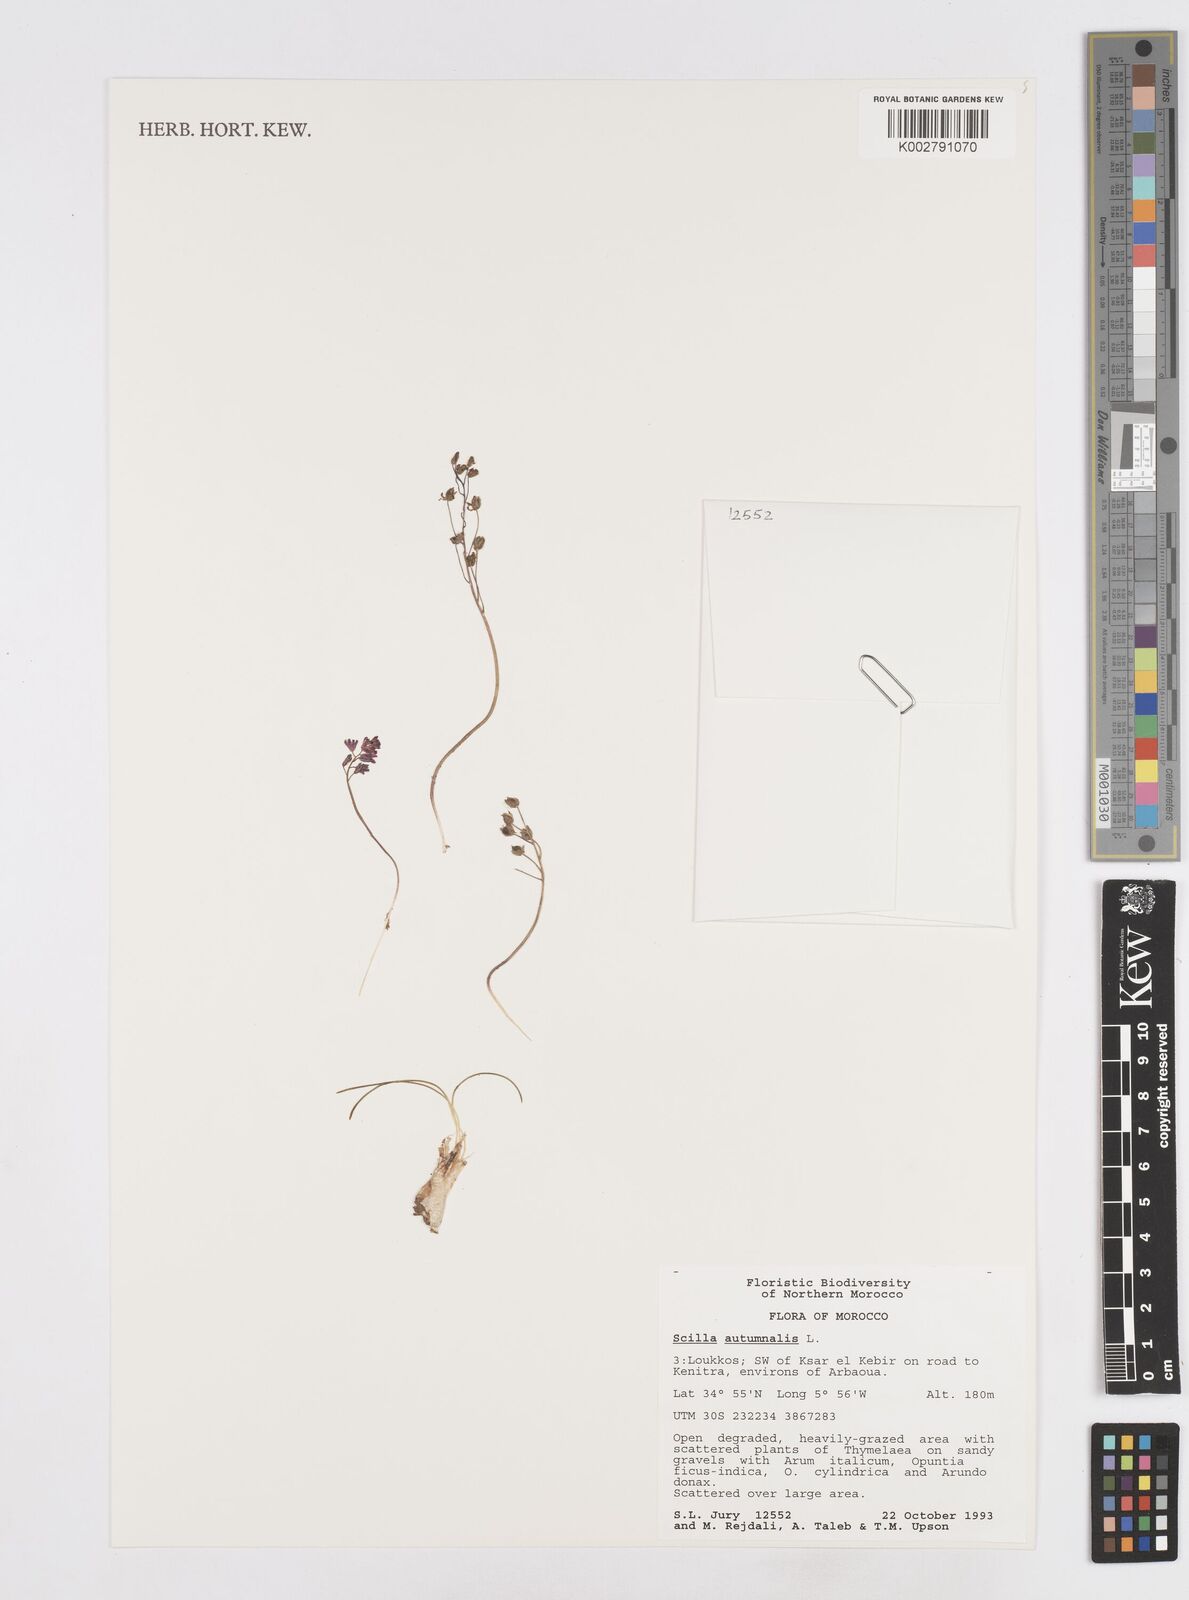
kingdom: Plantae
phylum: Tracheophyta
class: Liliopsida
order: Asparagales
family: Asparagaceae
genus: Prospero
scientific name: Prospero autumnale
